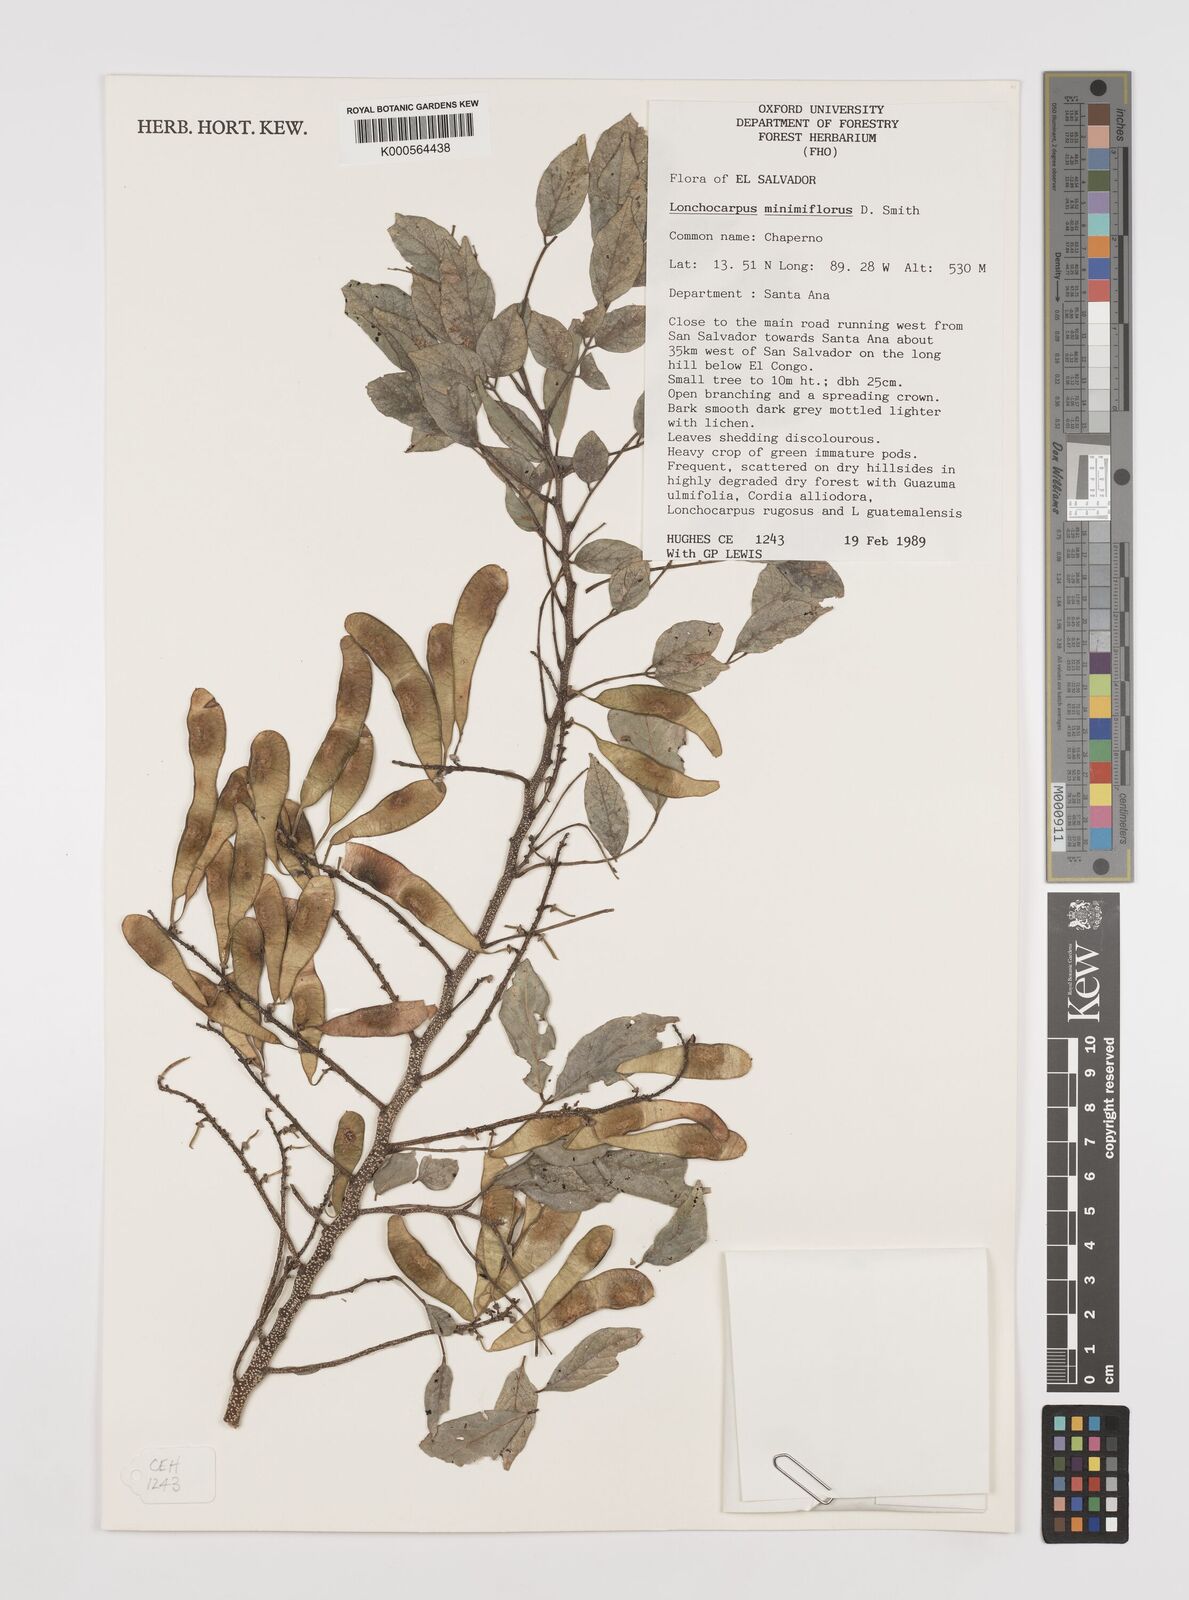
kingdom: Plantae
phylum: Tracheophyta
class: Magnoliopsida
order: Fabales
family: Fabaceae
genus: Lonchocarpus
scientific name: Lonchocarpus minimiflorus
